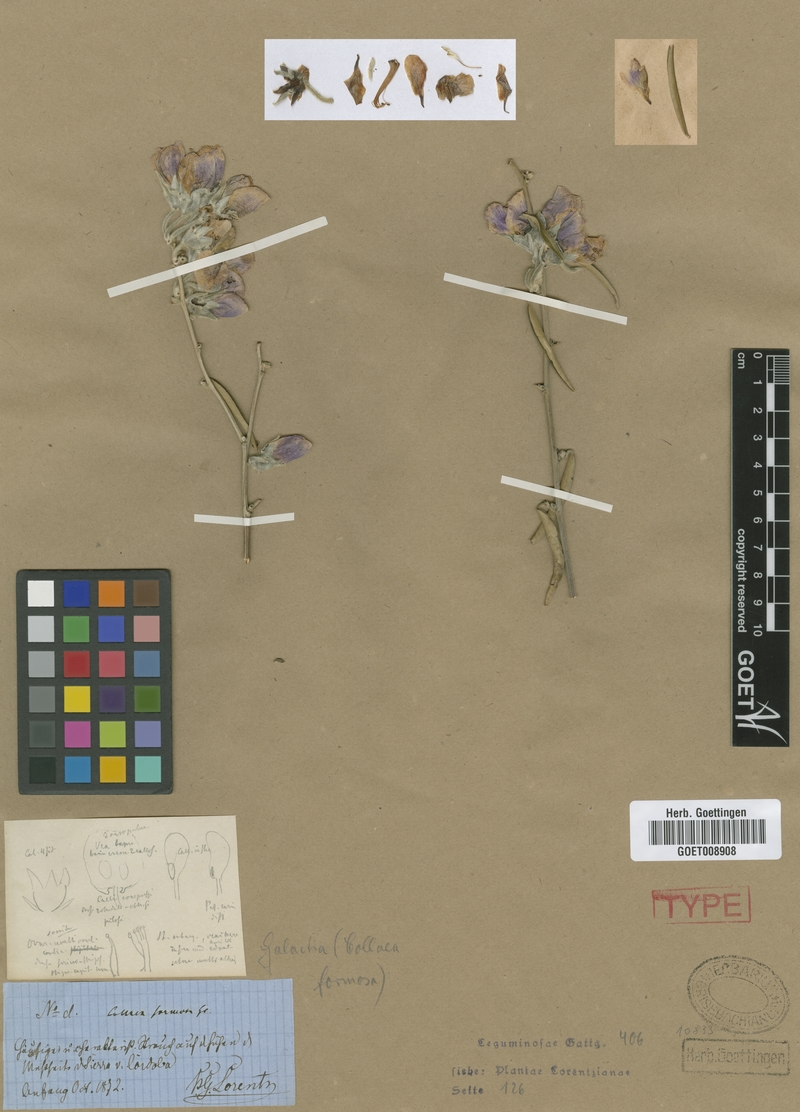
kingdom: Plantae
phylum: Tracheophyta
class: Magnoliopsida
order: Fabales
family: Fabaceae
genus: Nanogalactia
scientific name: Nanogalactia heterophylla
